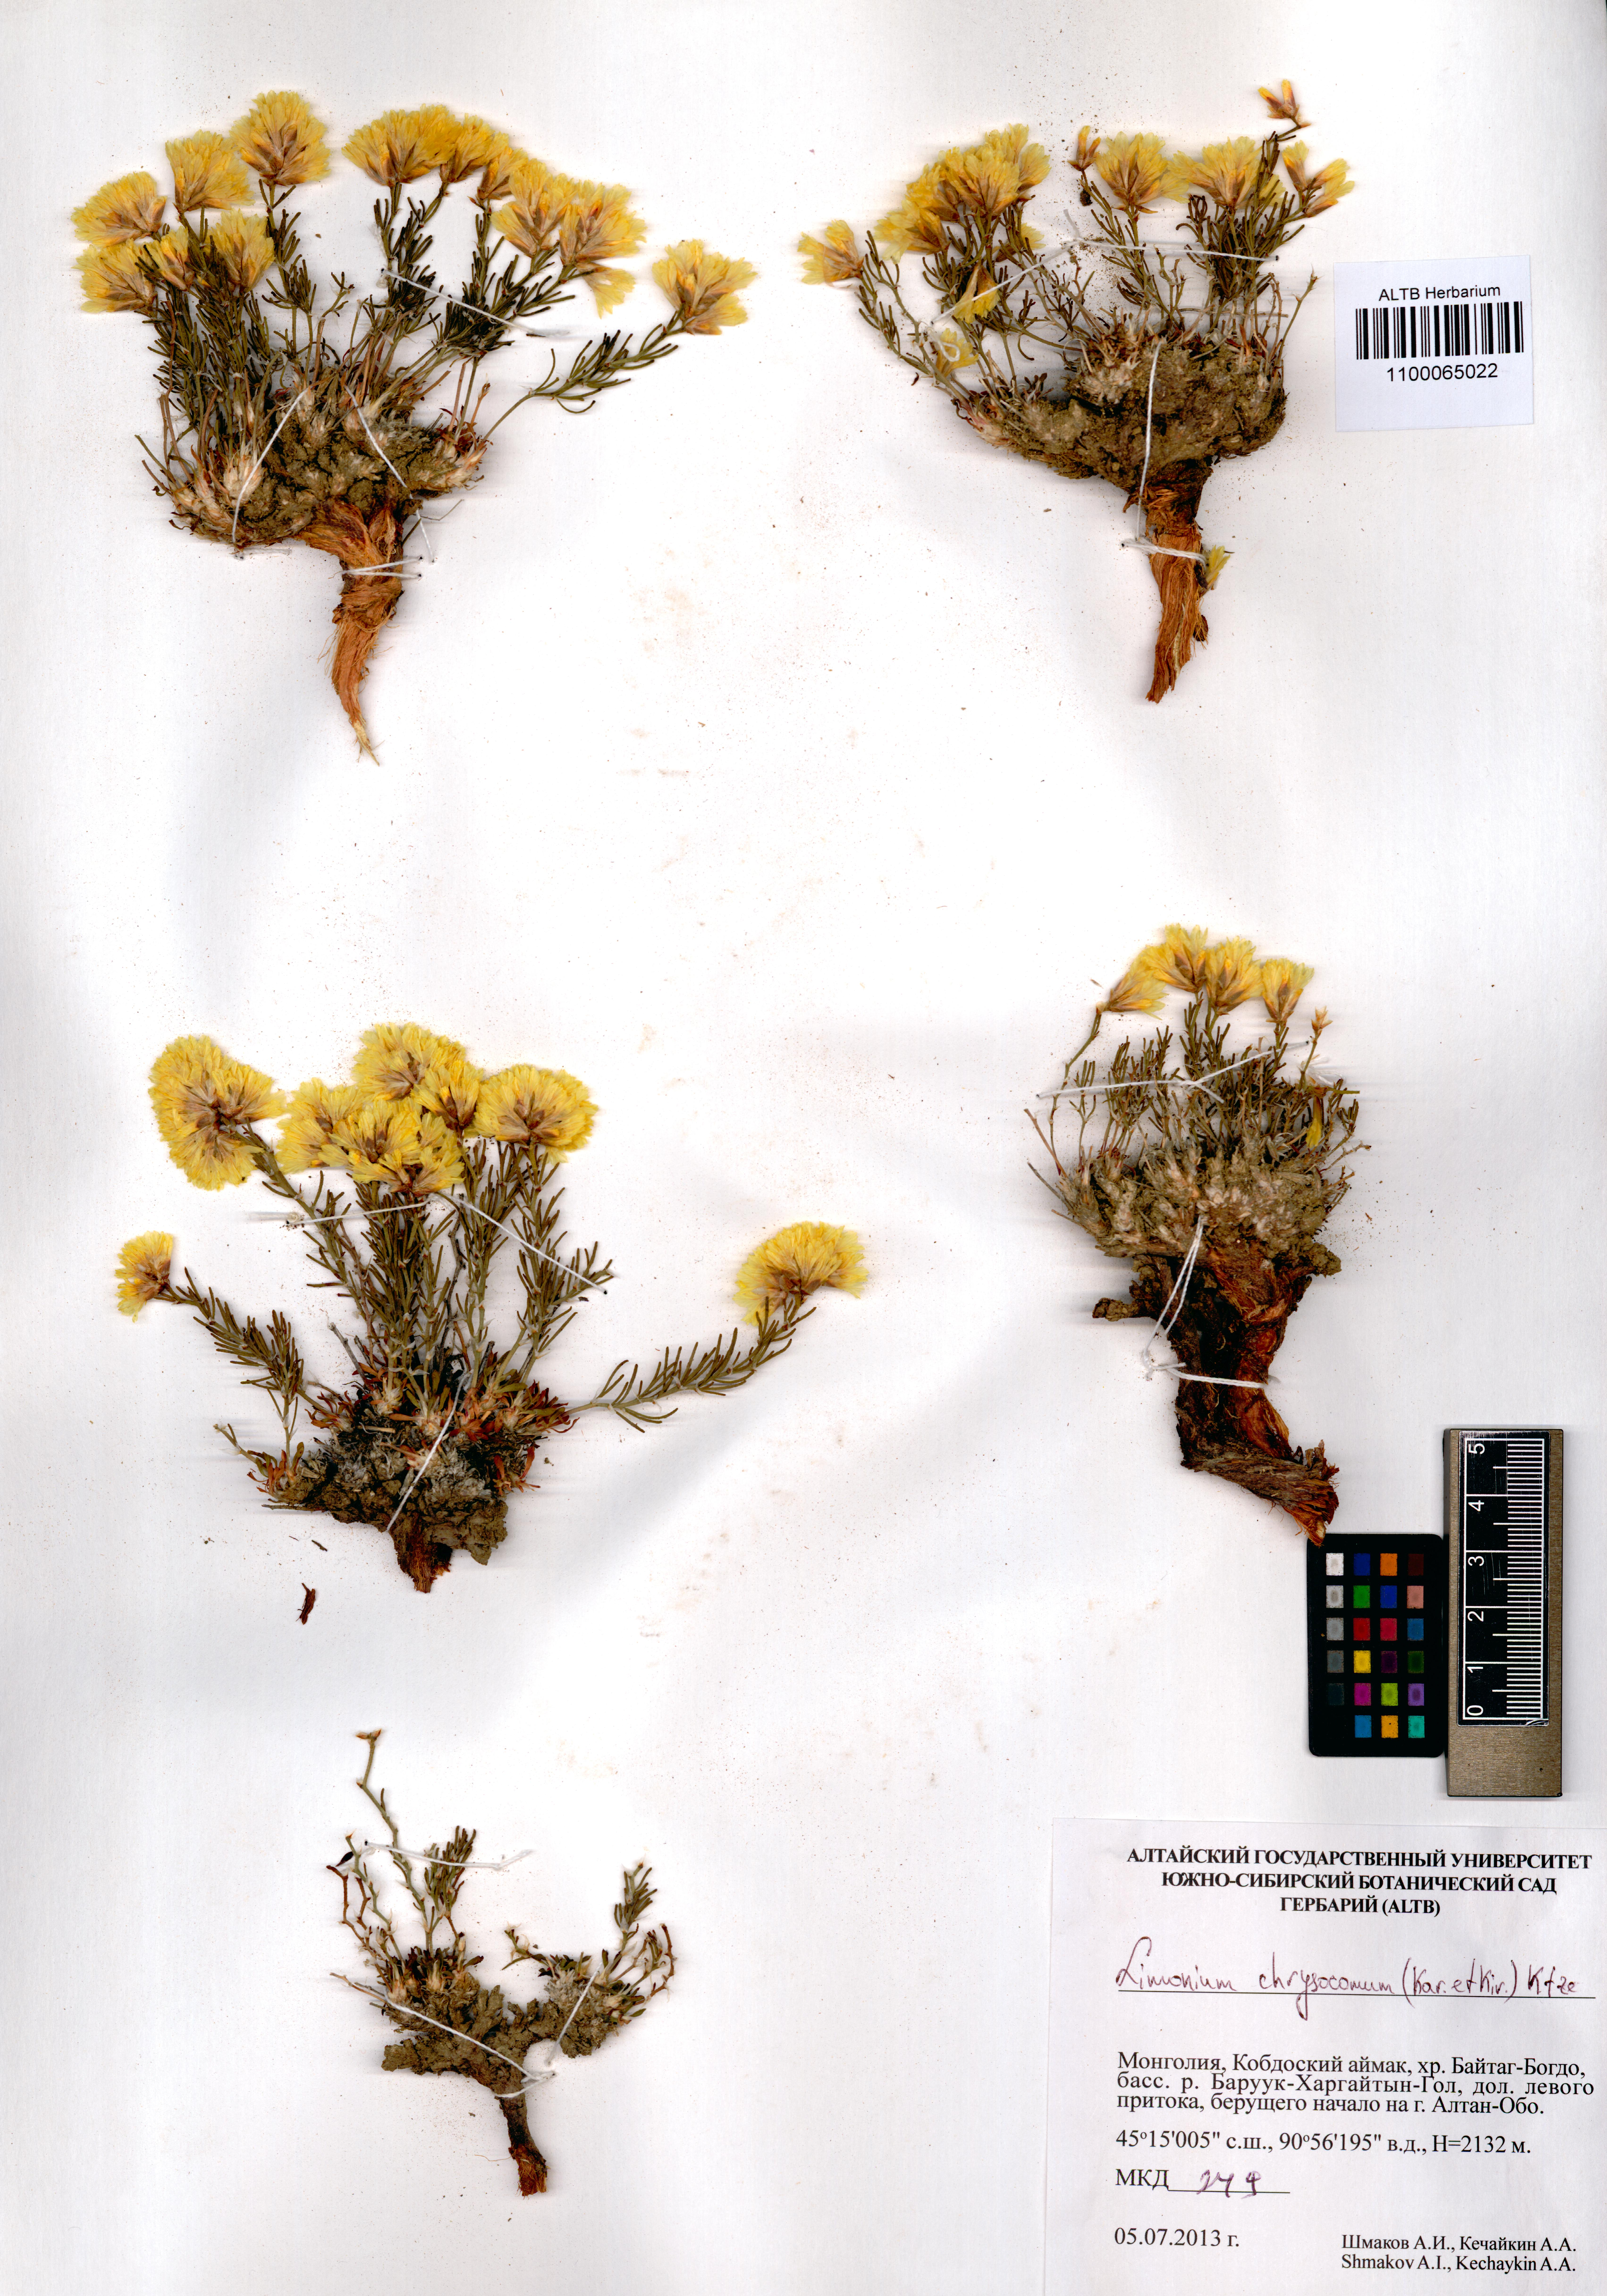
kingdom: Plantae
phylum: Tracheophyta
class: Magnoliopsida
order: Caryophyllales
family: Plumbaginaceae
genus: Limonium
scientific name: Limonium chrysocomum
